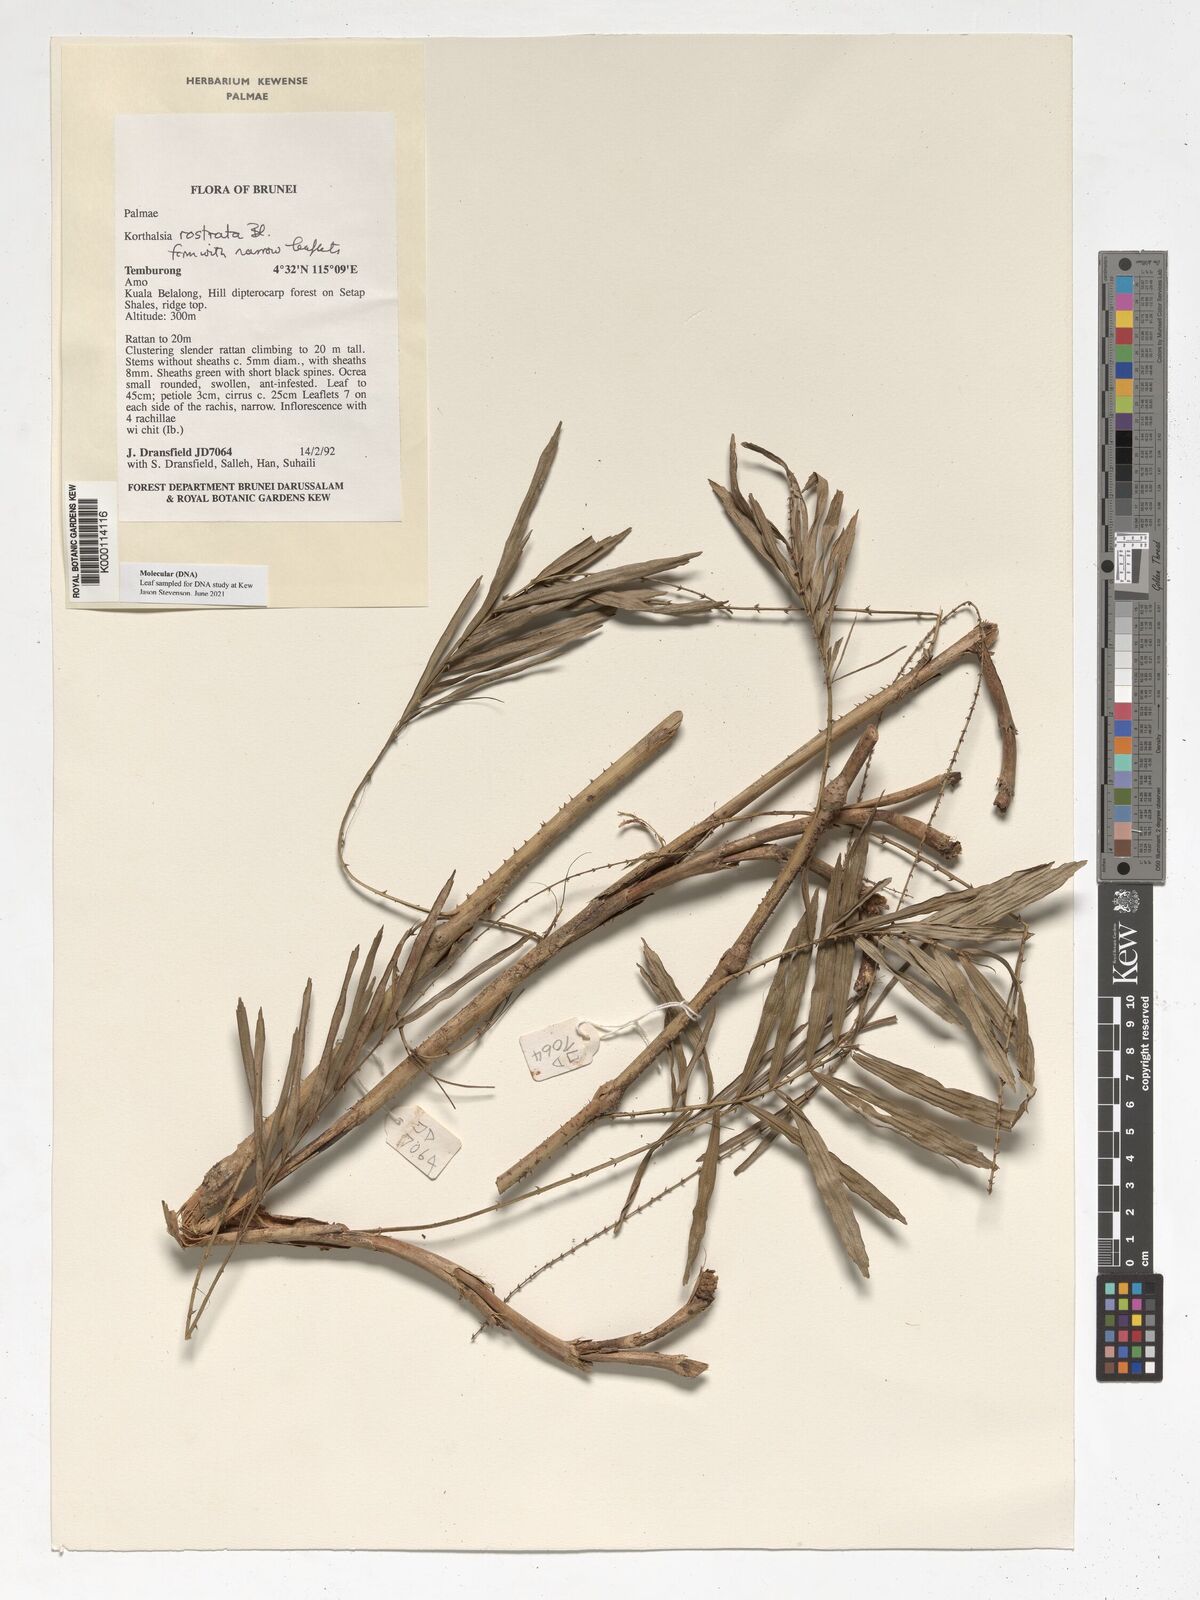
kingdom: Plantae
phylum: Tracheophyta
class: Liliopsida
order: Arecales
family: Arecaceae
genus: Korthalsia
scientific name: Korthalsia rostrata
